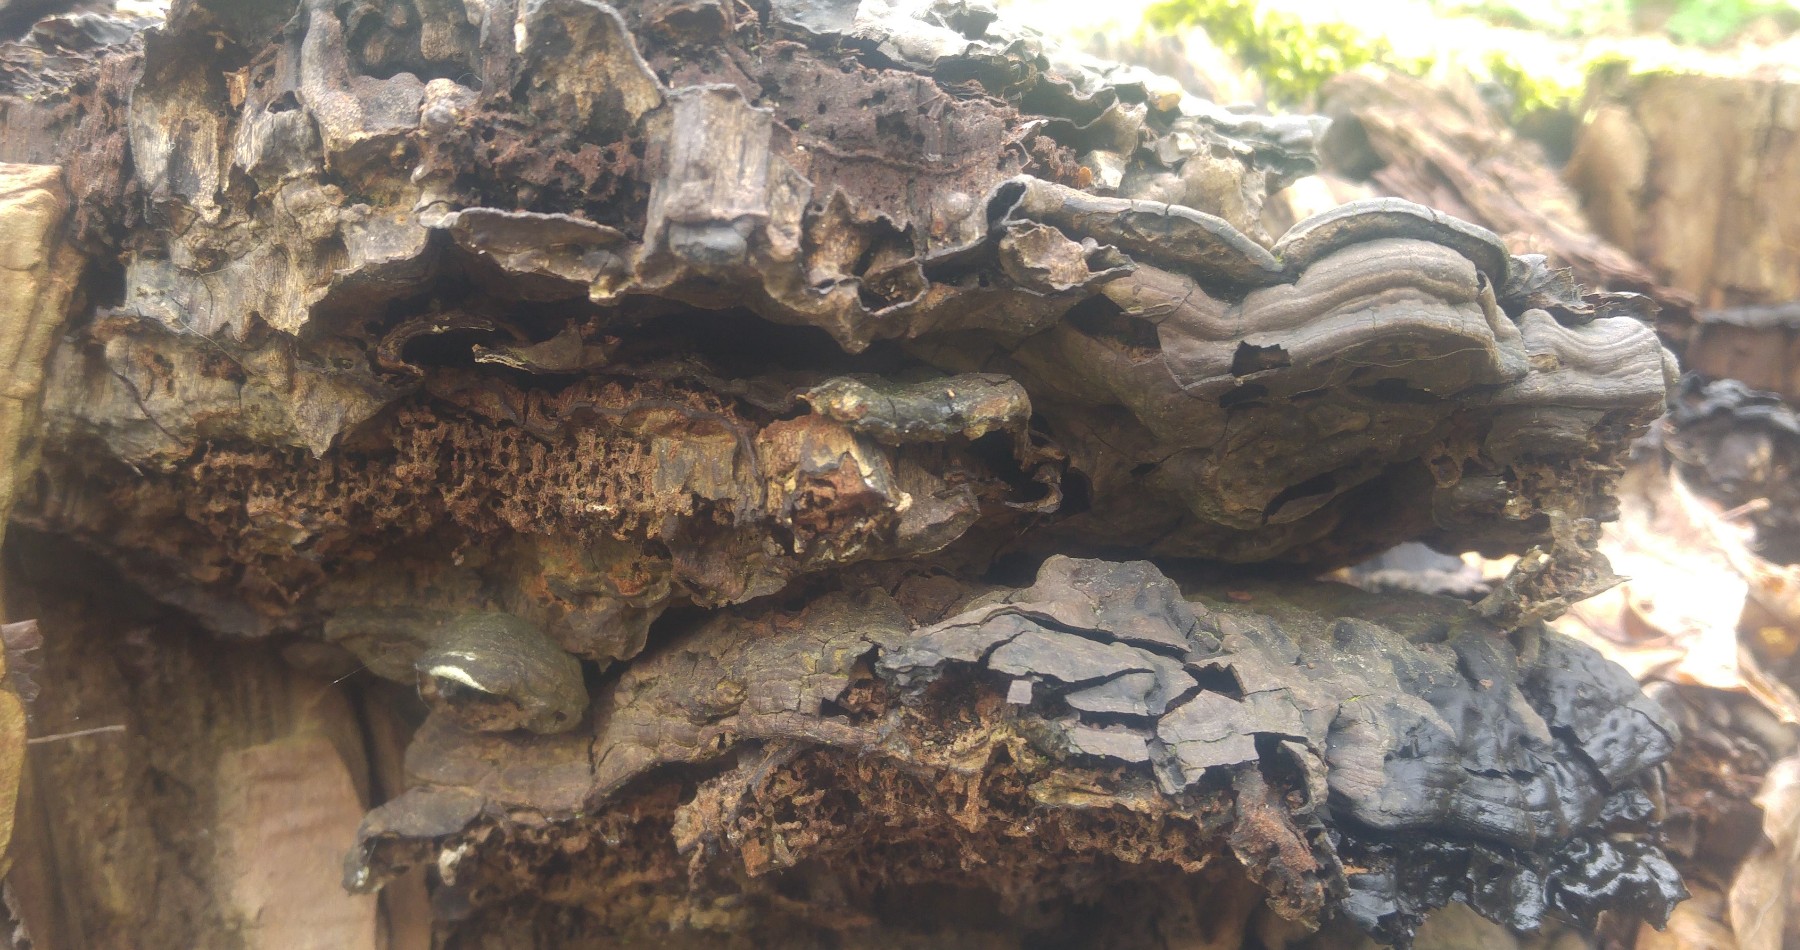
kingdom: Fungi
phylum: Basidiomycota
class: Agaricomycetes
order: Polyporales
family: Polyporaceae
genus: Ganoderma
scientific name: Ganoderma
